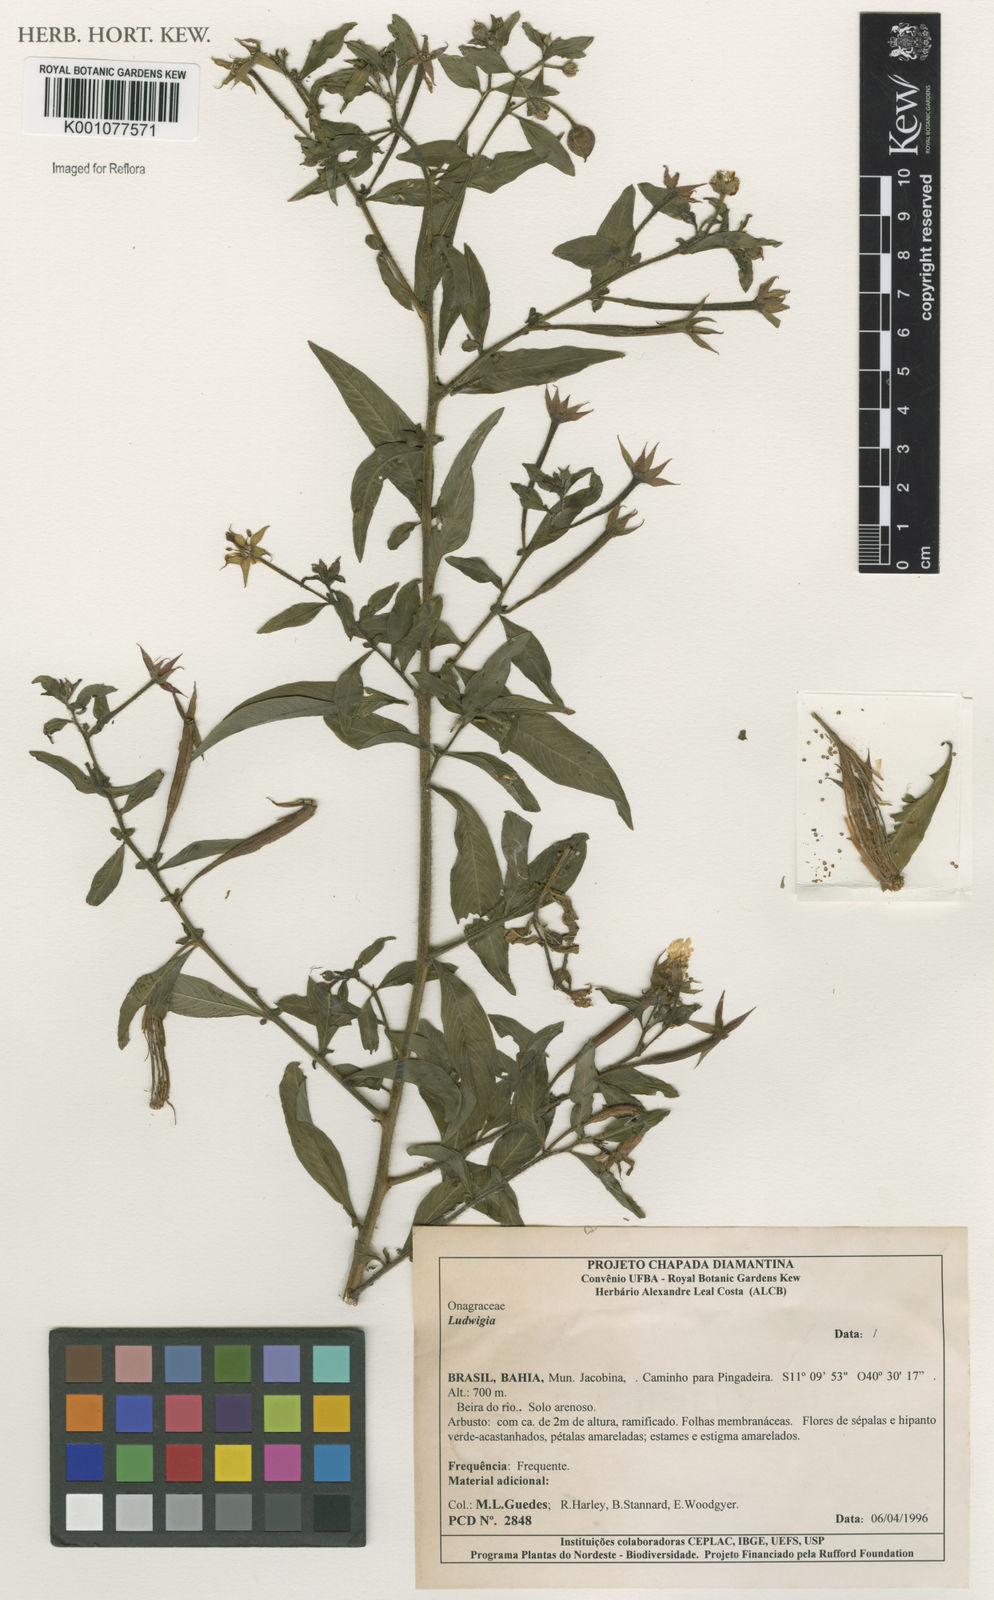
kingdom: Plantae
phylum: Tracheophyta
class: Magnoliopsida
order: Myrtales
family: Onagraceae
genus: Ludwigia
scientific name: Ludwigia
